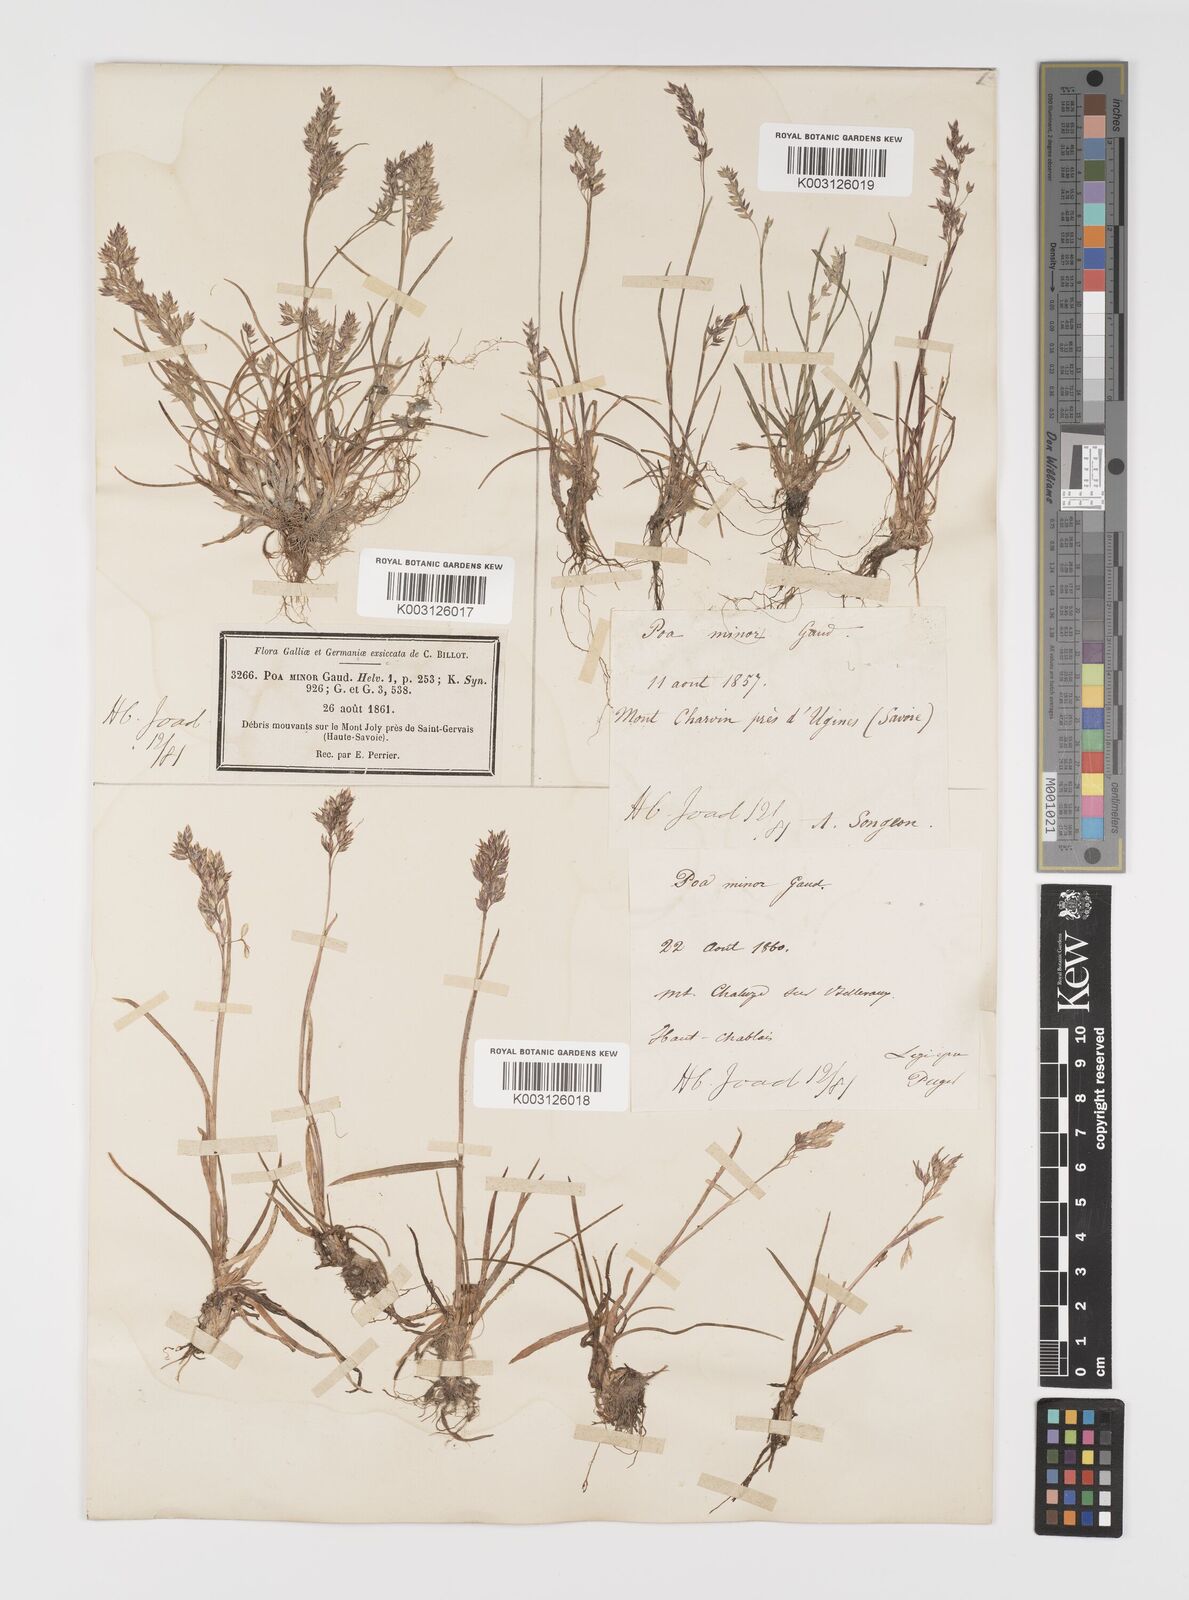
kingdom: Plantae
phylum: Tracheophyta
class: Liliopsida
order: Poales
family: Poaceae
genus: Poa
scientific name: Poa minor
